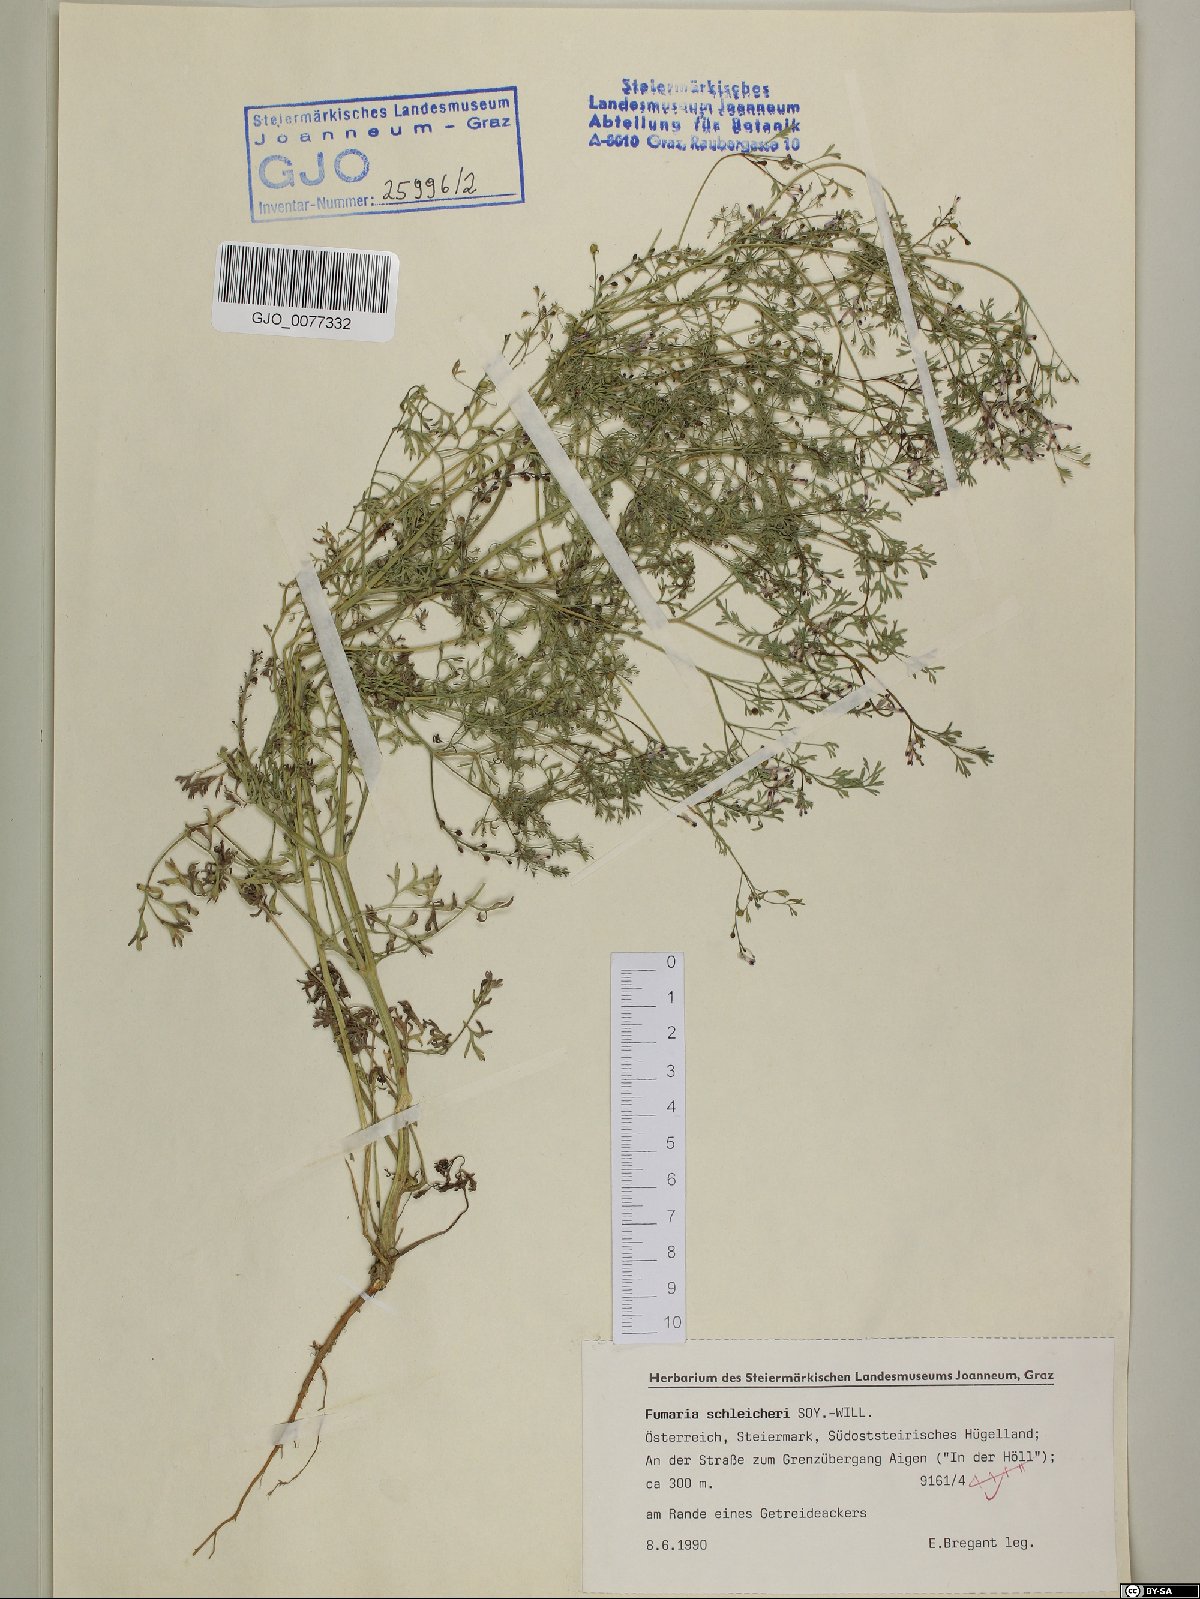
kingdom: Plantae
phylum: Tracheophyta
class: Magnoliopsida
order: Ranunculales
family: Papaveraceae
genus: Fumaria
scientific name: Fumaria schleicheri
